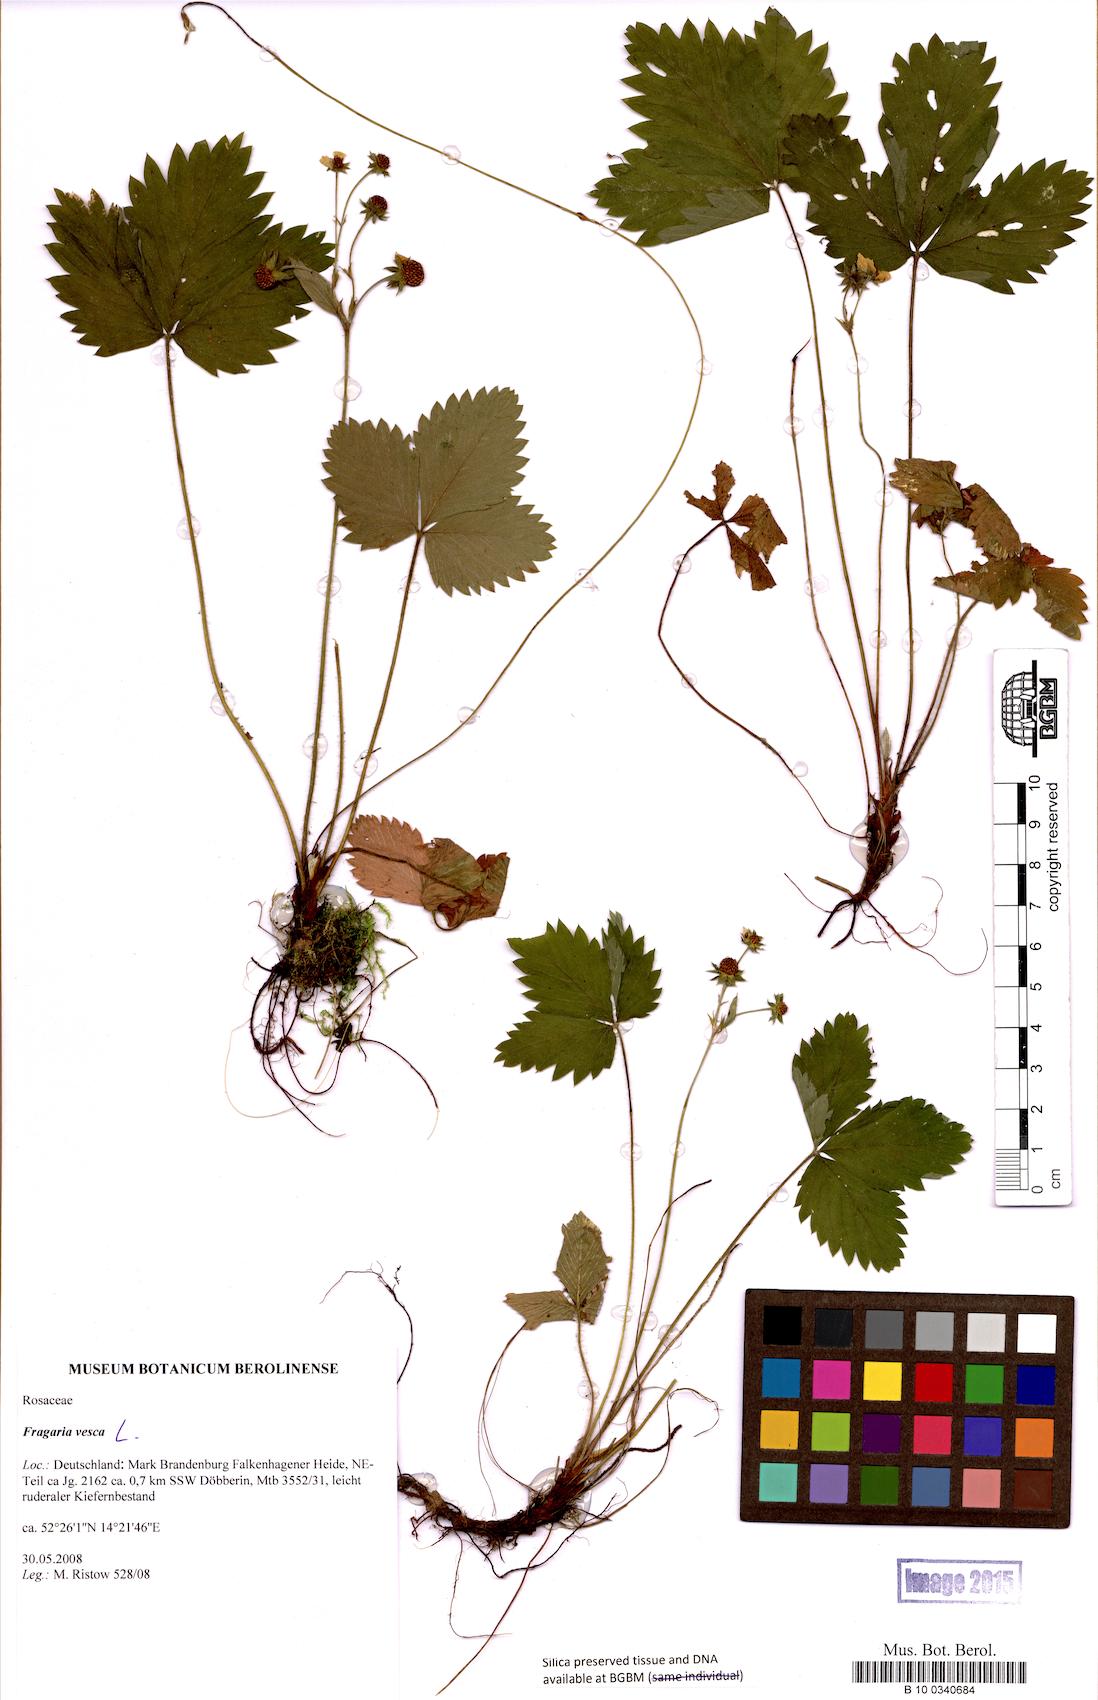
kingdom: Plantae
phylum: Tracheophyta
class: Magnoliopsida
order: Rosales
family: Rosaceae
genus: Fragaria
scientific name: Fragaria vesca
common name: Wild strawberry
